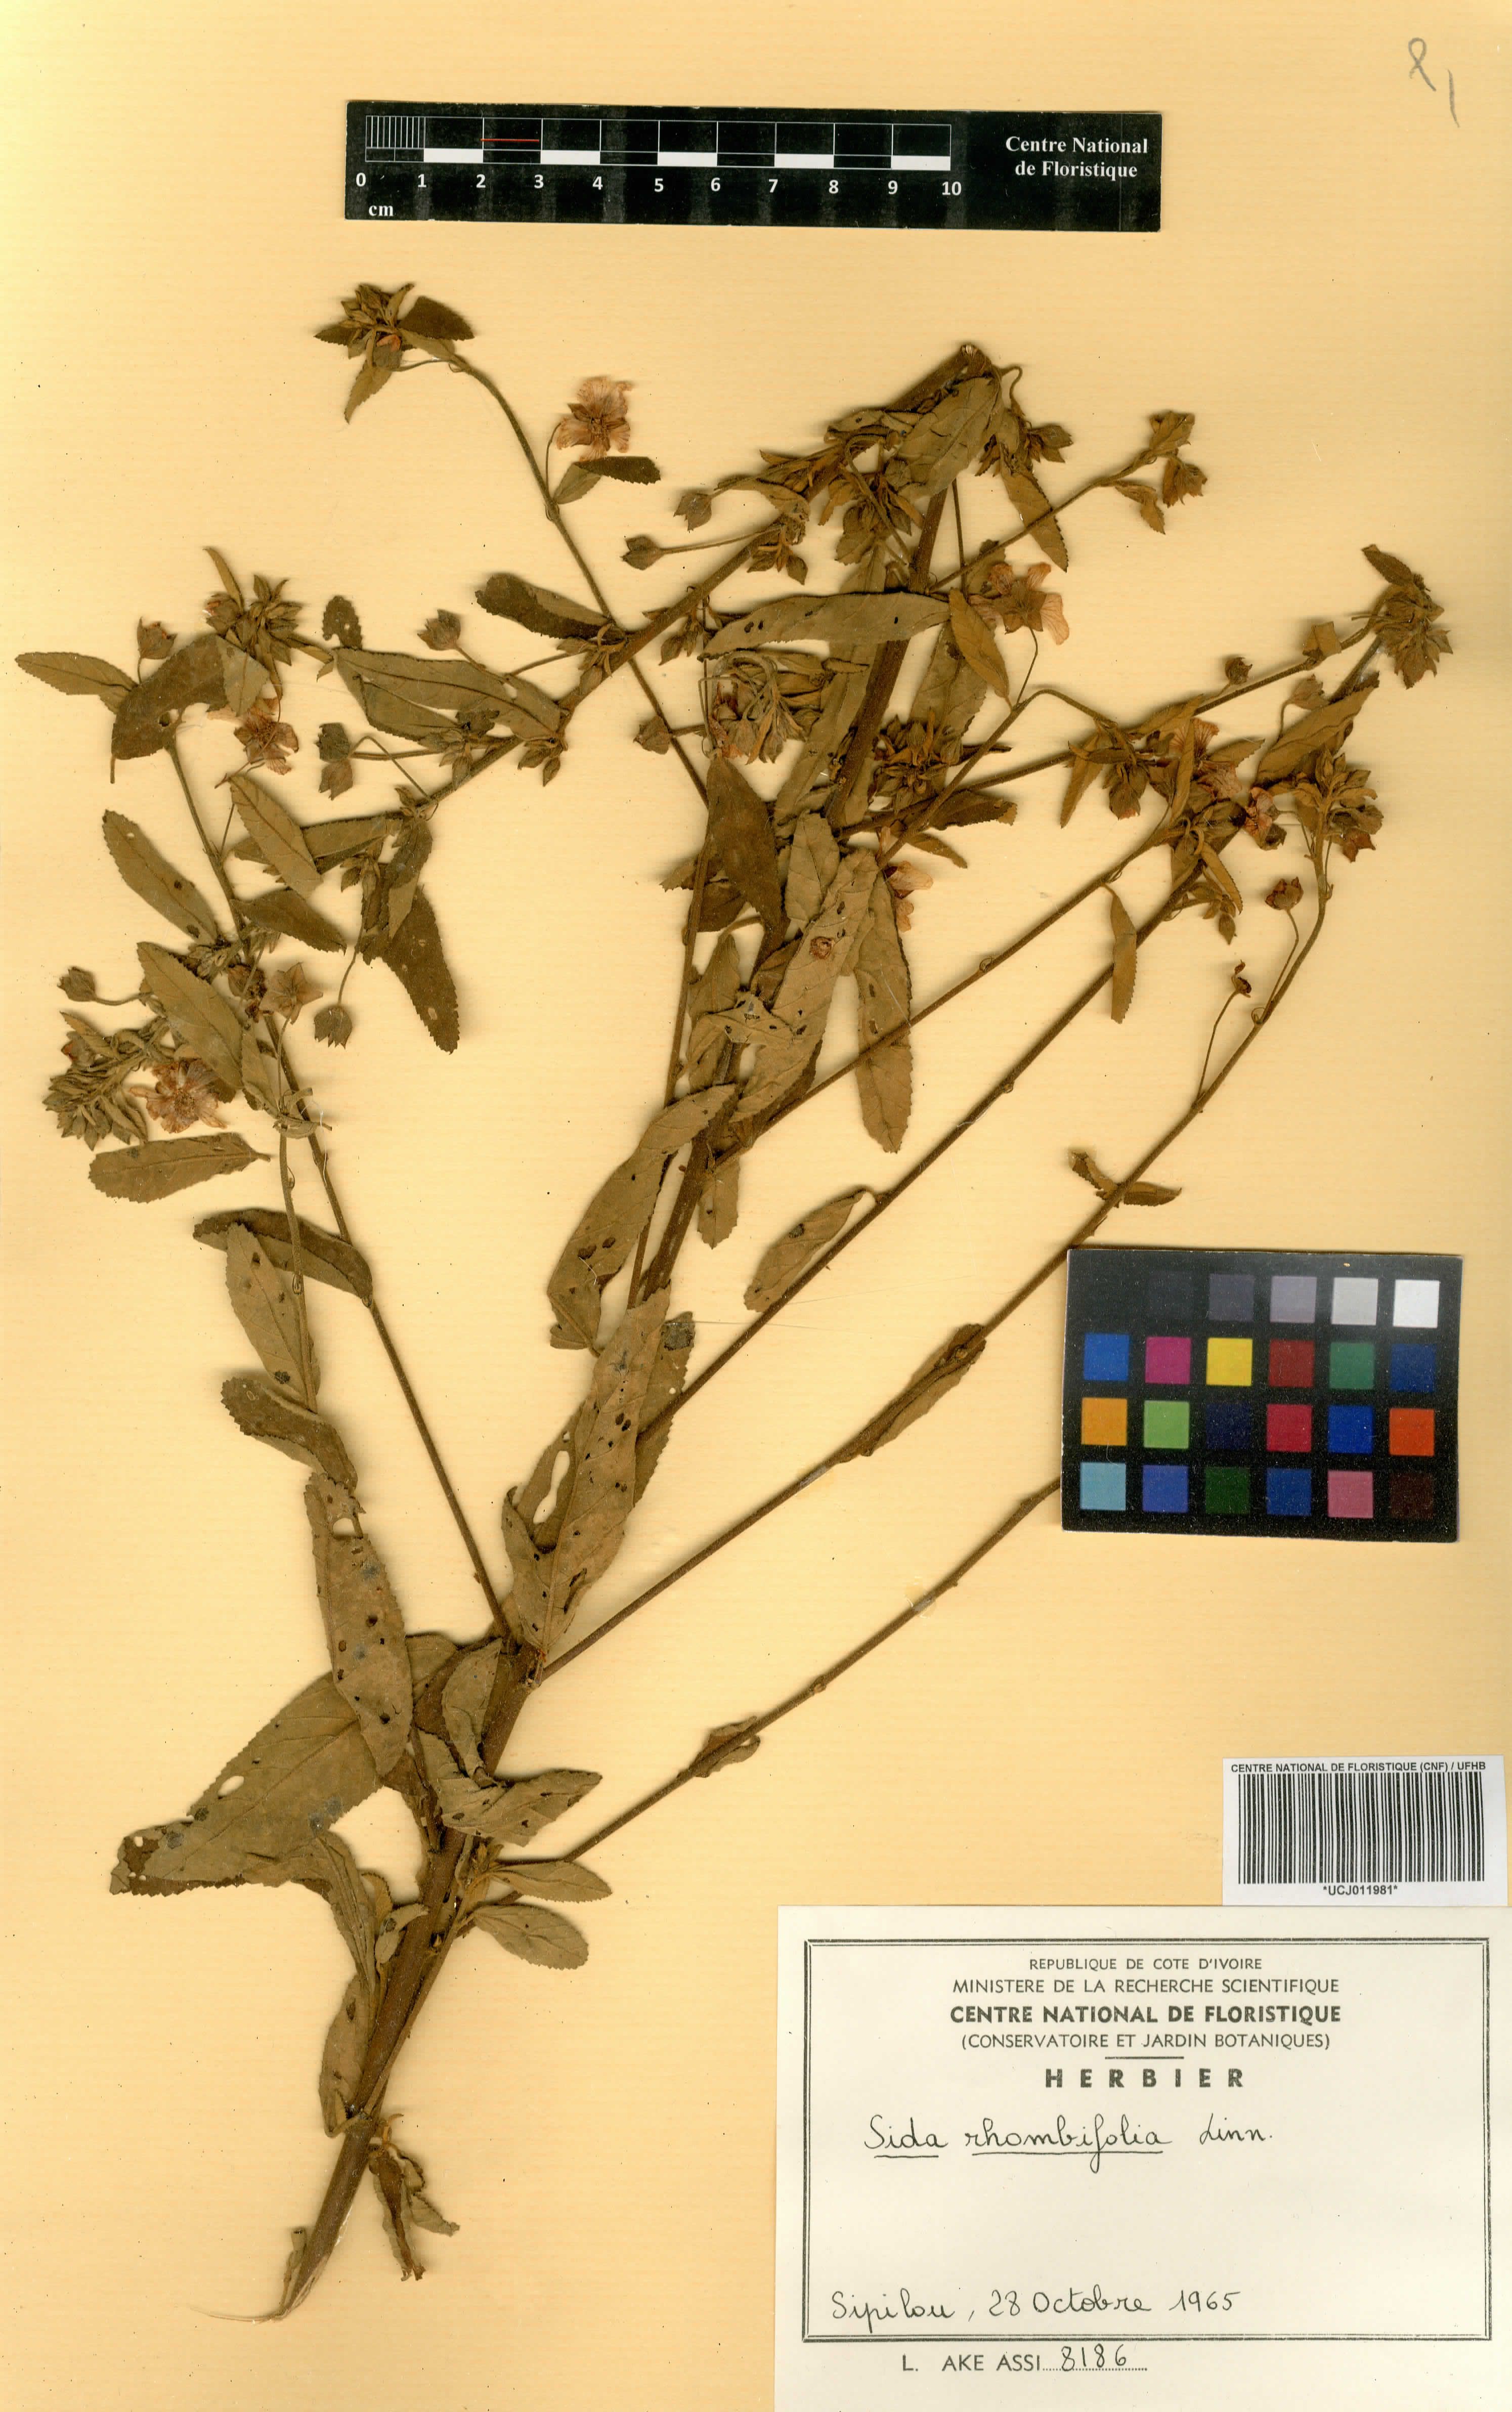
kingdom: Plantae
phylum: Tracheophyta
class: Magnoliopsida
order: Malvales
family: Malvaceae
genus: Sida
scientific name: Sida rhombifolia
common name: Queensland-hemp
